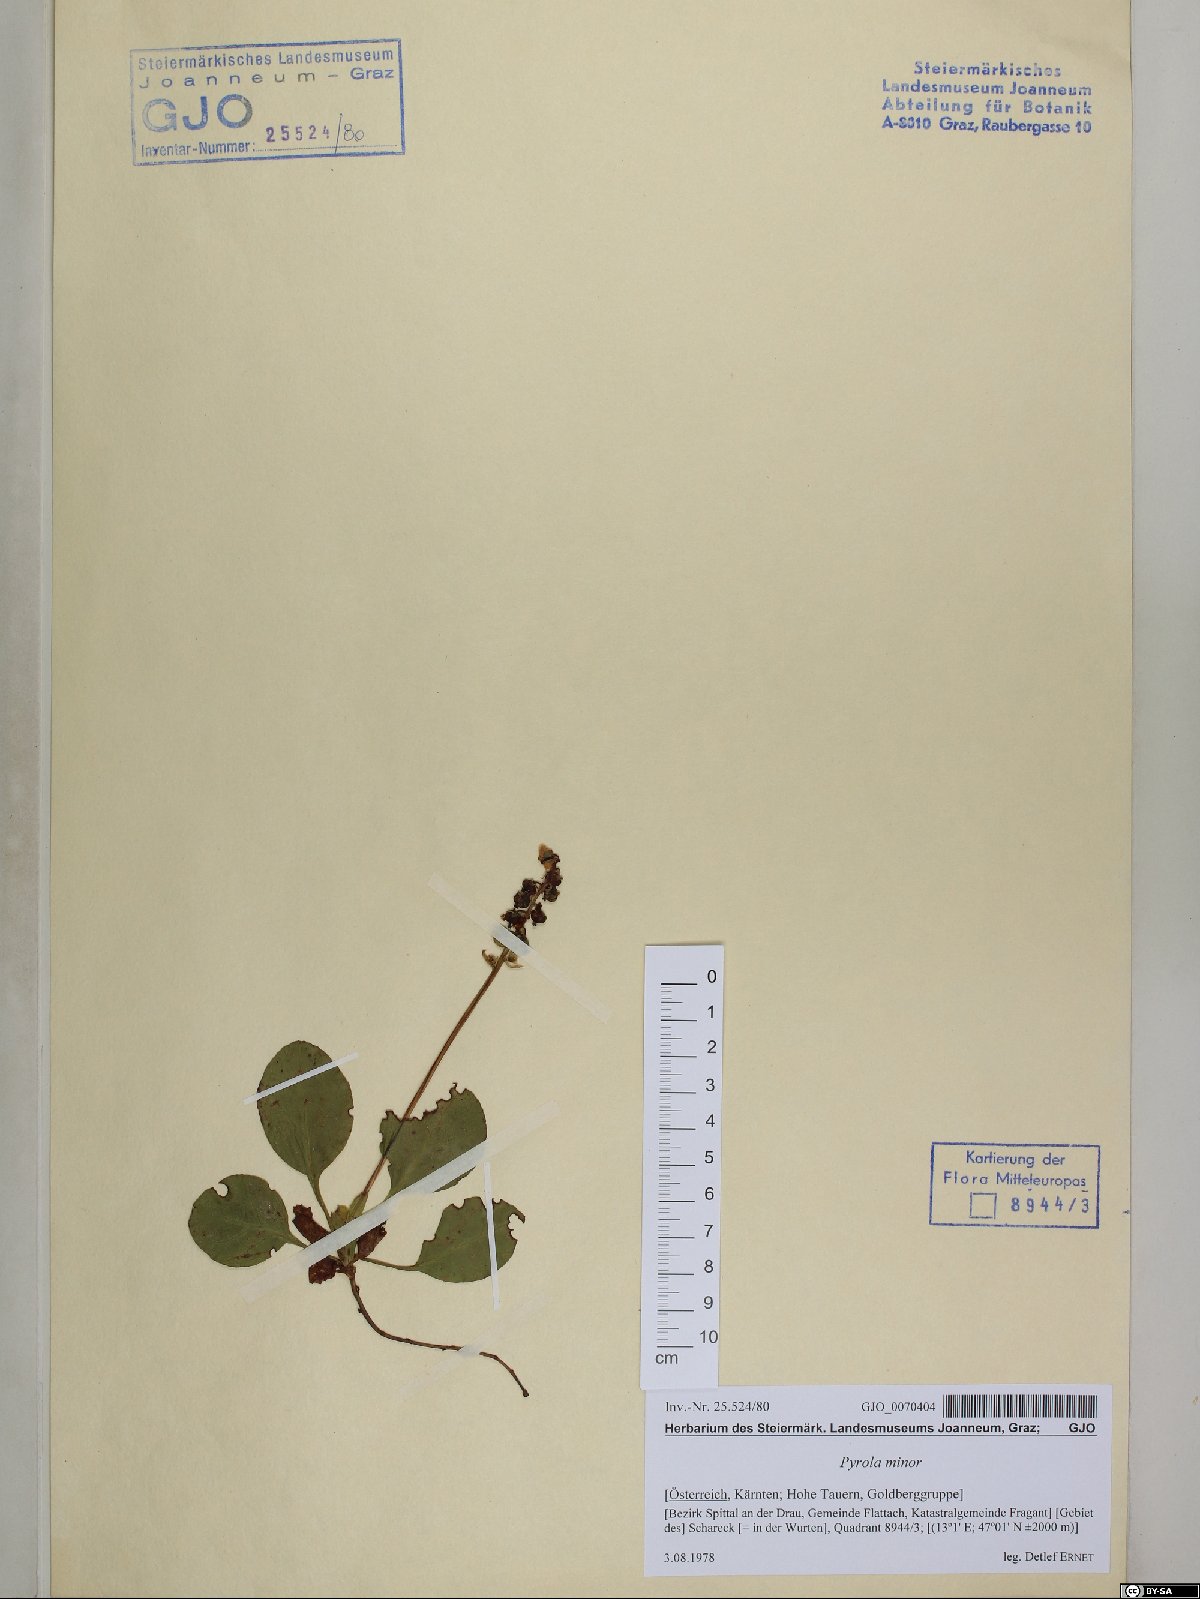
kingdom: Plantae
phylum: Tracheophyta
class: Magnoliopsida
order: Ericales
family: Ericaceae
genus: Pyrola
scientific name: Pyrola minor
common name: Common wintergreen
